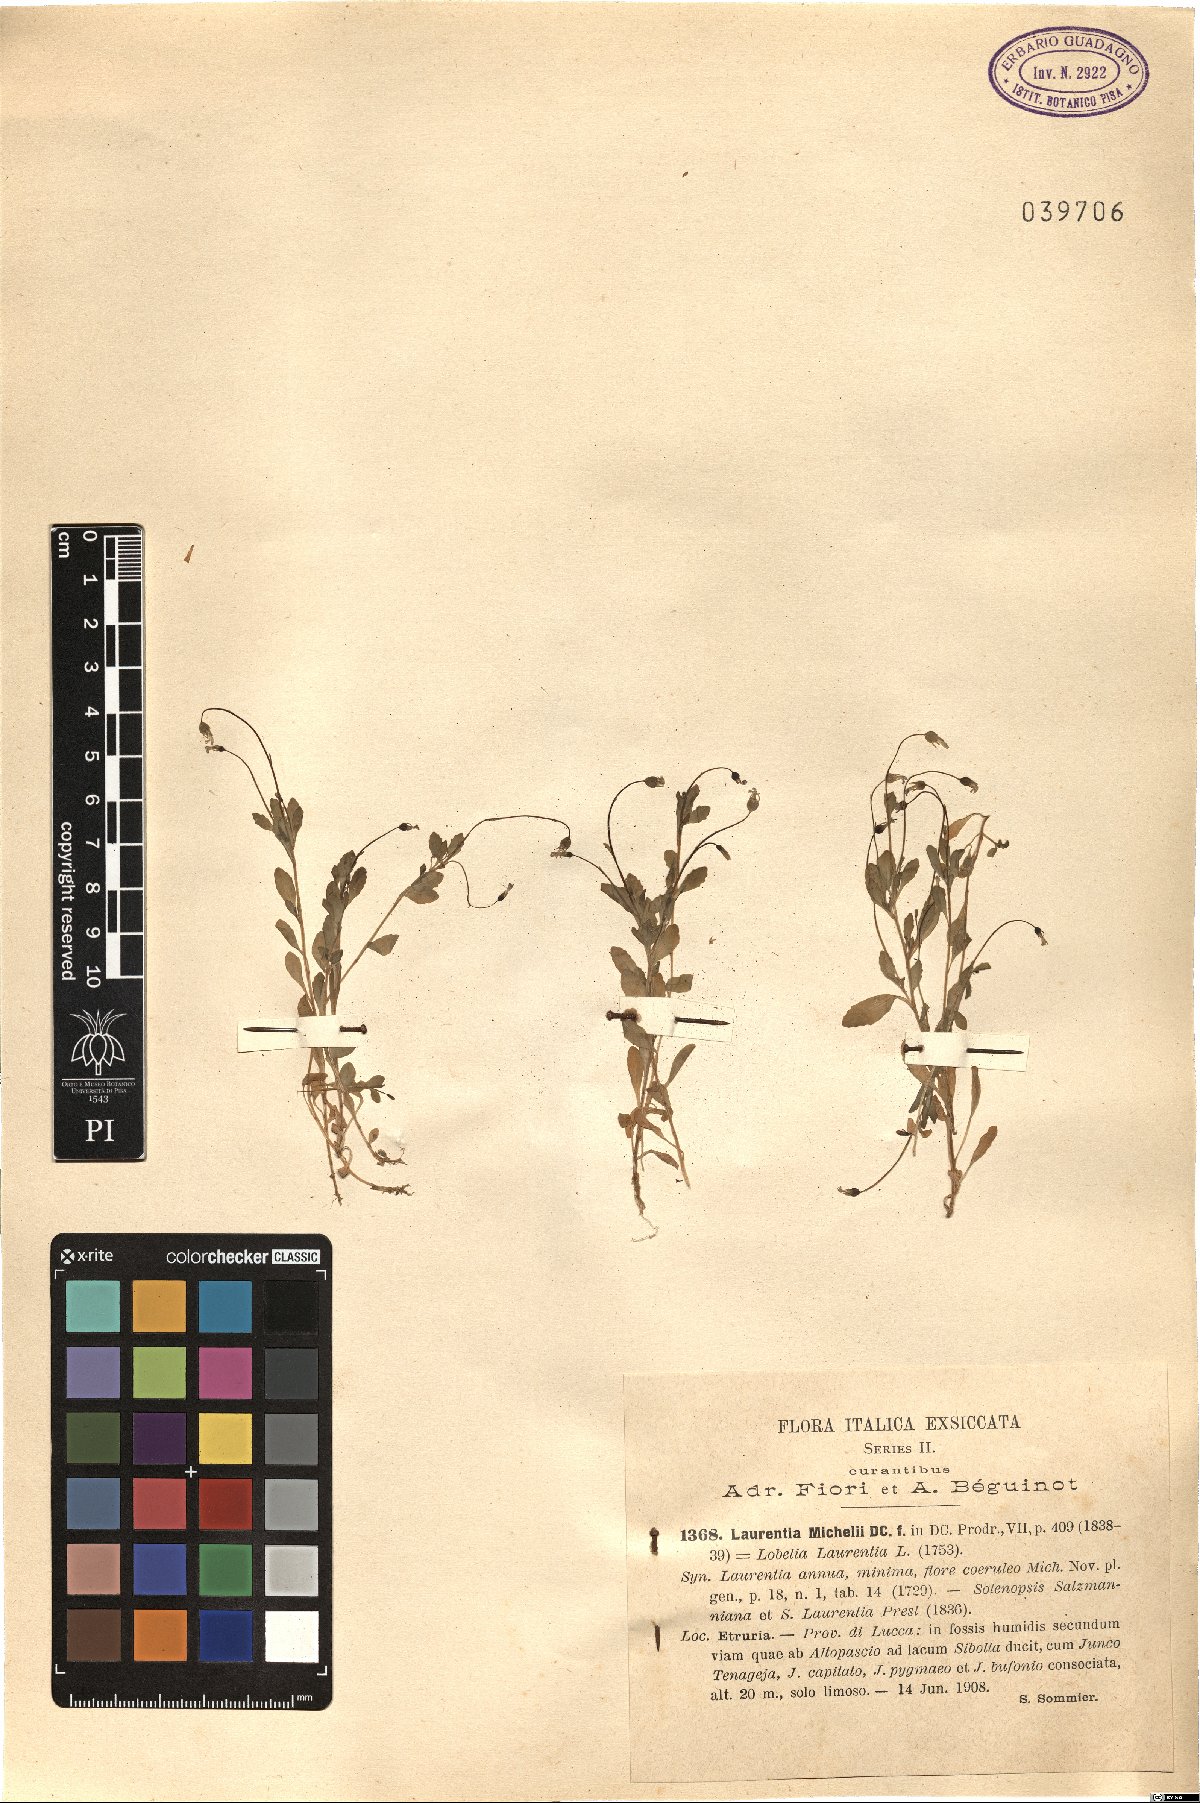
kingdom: Plantae
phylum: Tracheophyta
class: Magnoliopsida
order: Asterales
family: Campanulaceae
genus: Solenopsis
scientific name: Solenopsis laurentia
